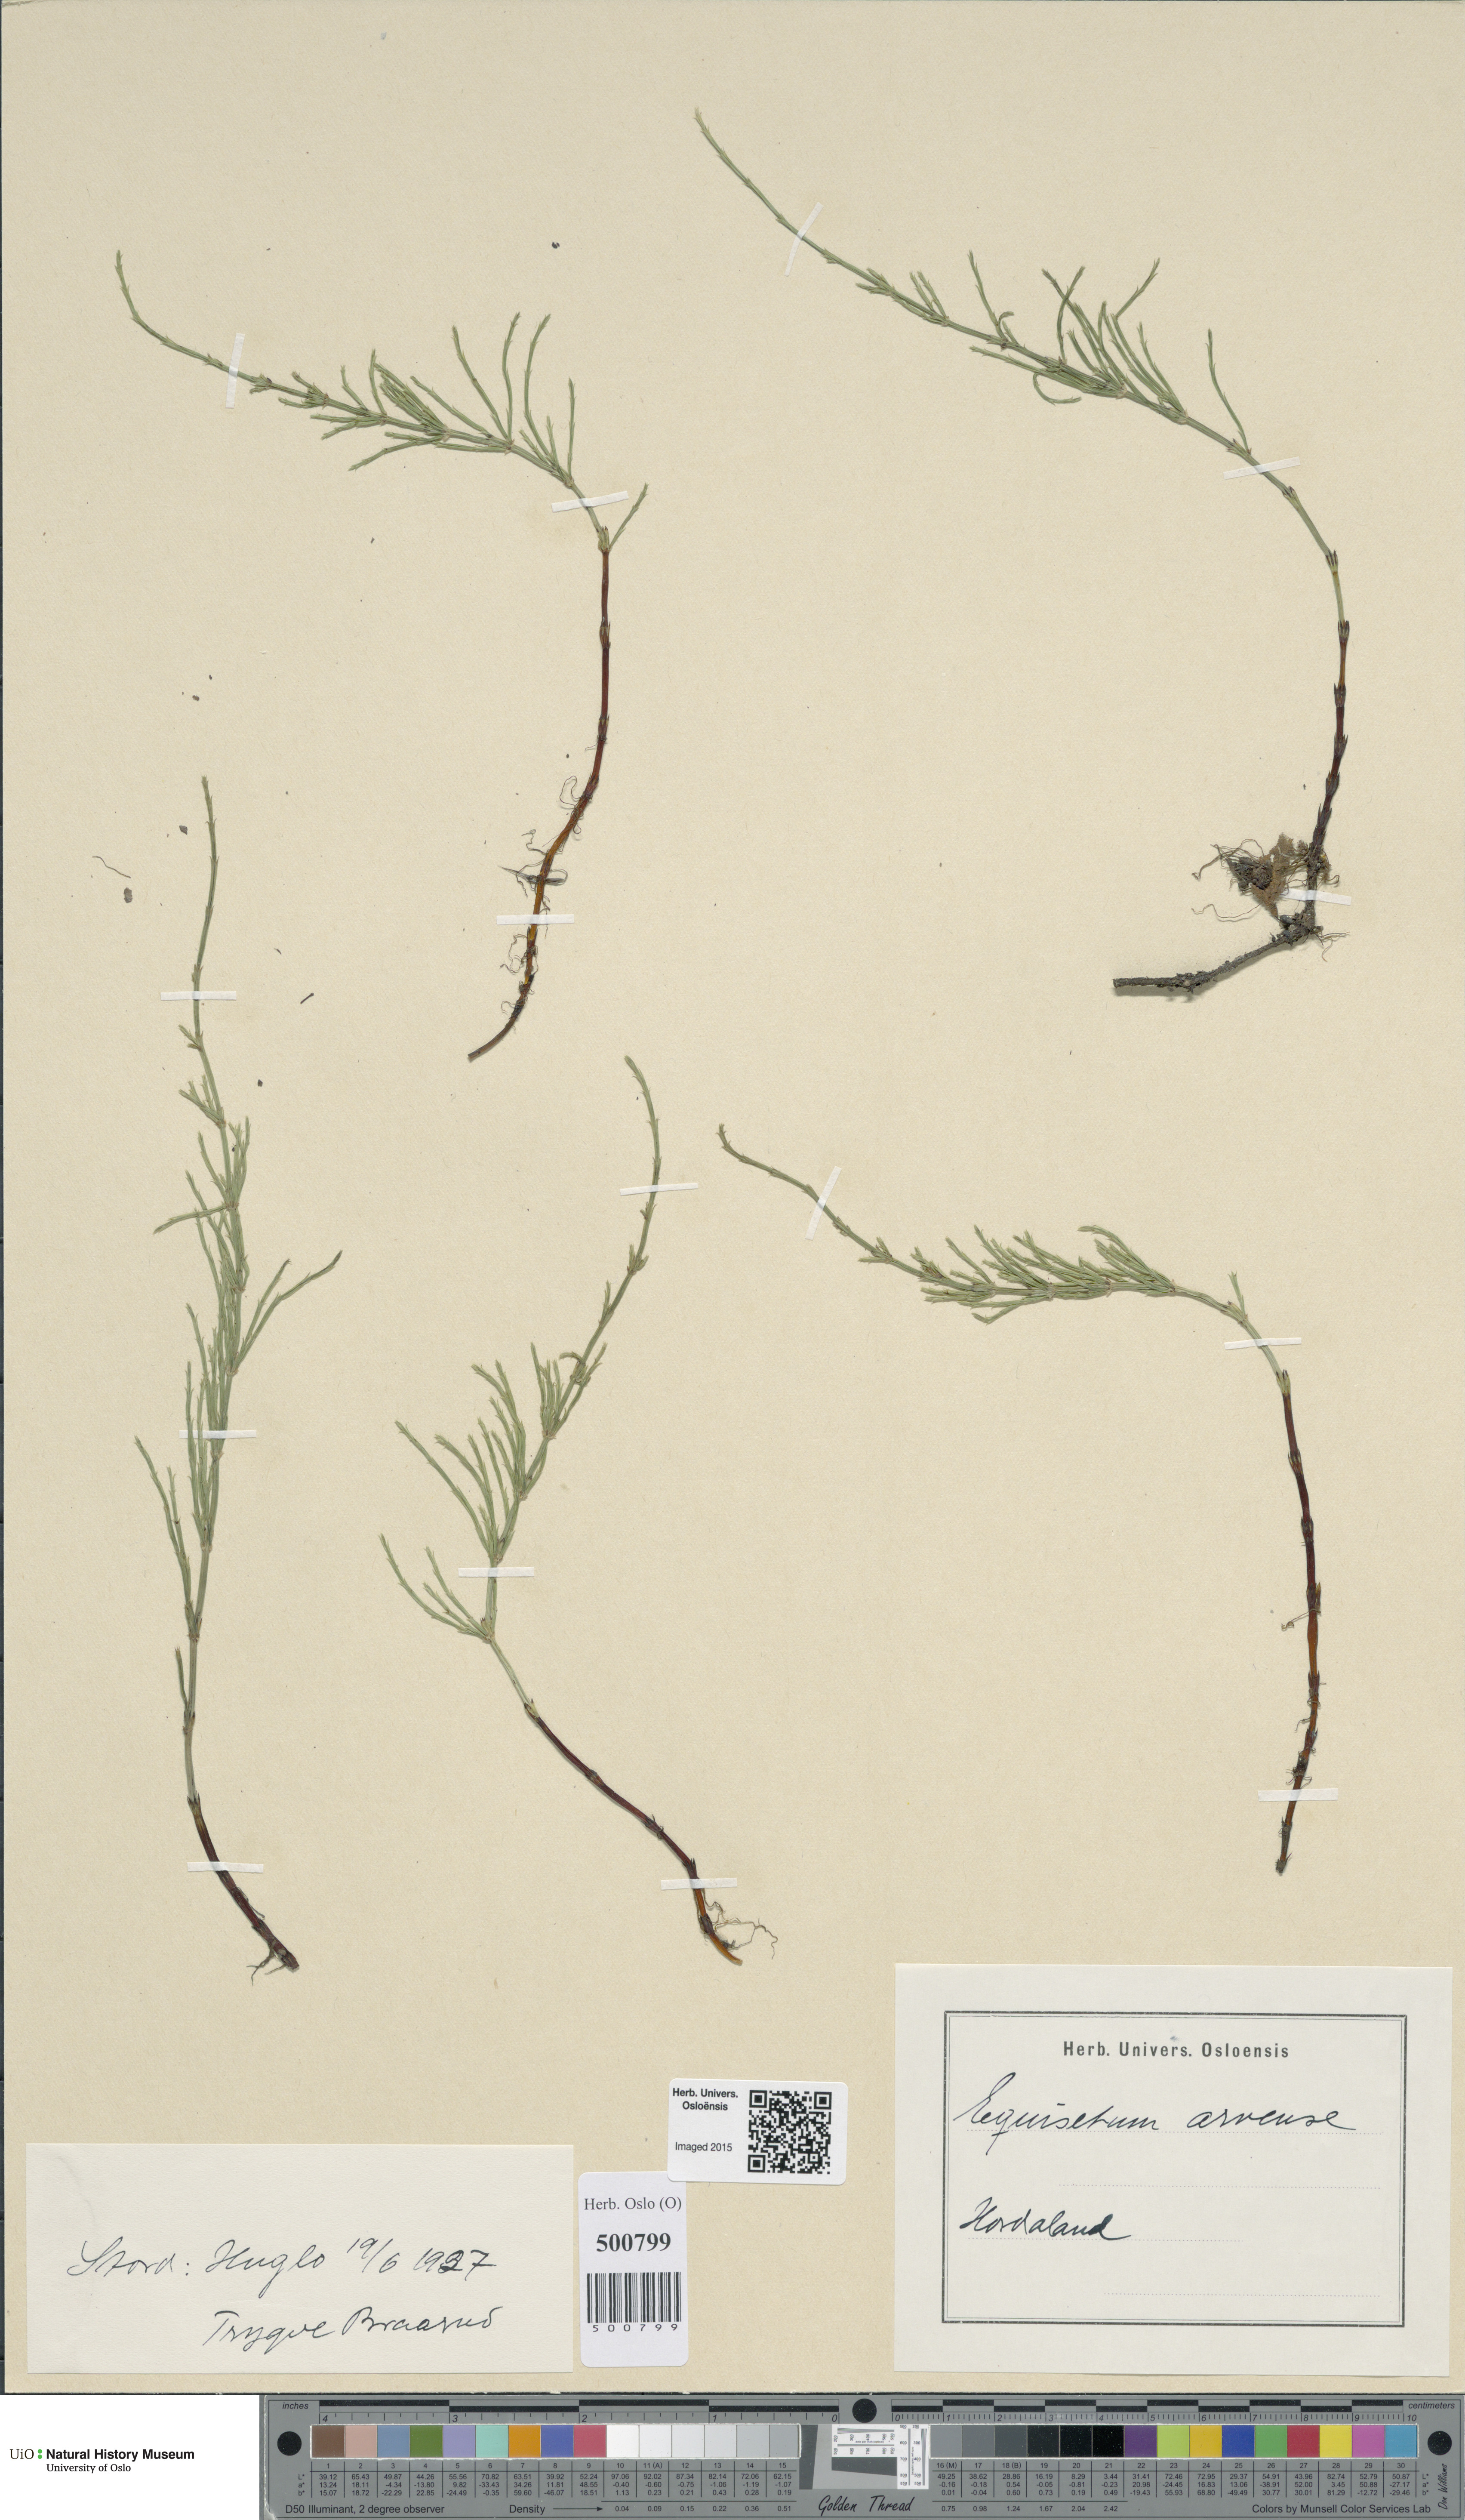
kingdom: Plantae
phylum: Tracheophyta
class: Polypodiopsida
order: Equisetales
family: Equisetaceae
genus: Equisetum
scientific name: Equisetum arvense
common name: Field horsetail
